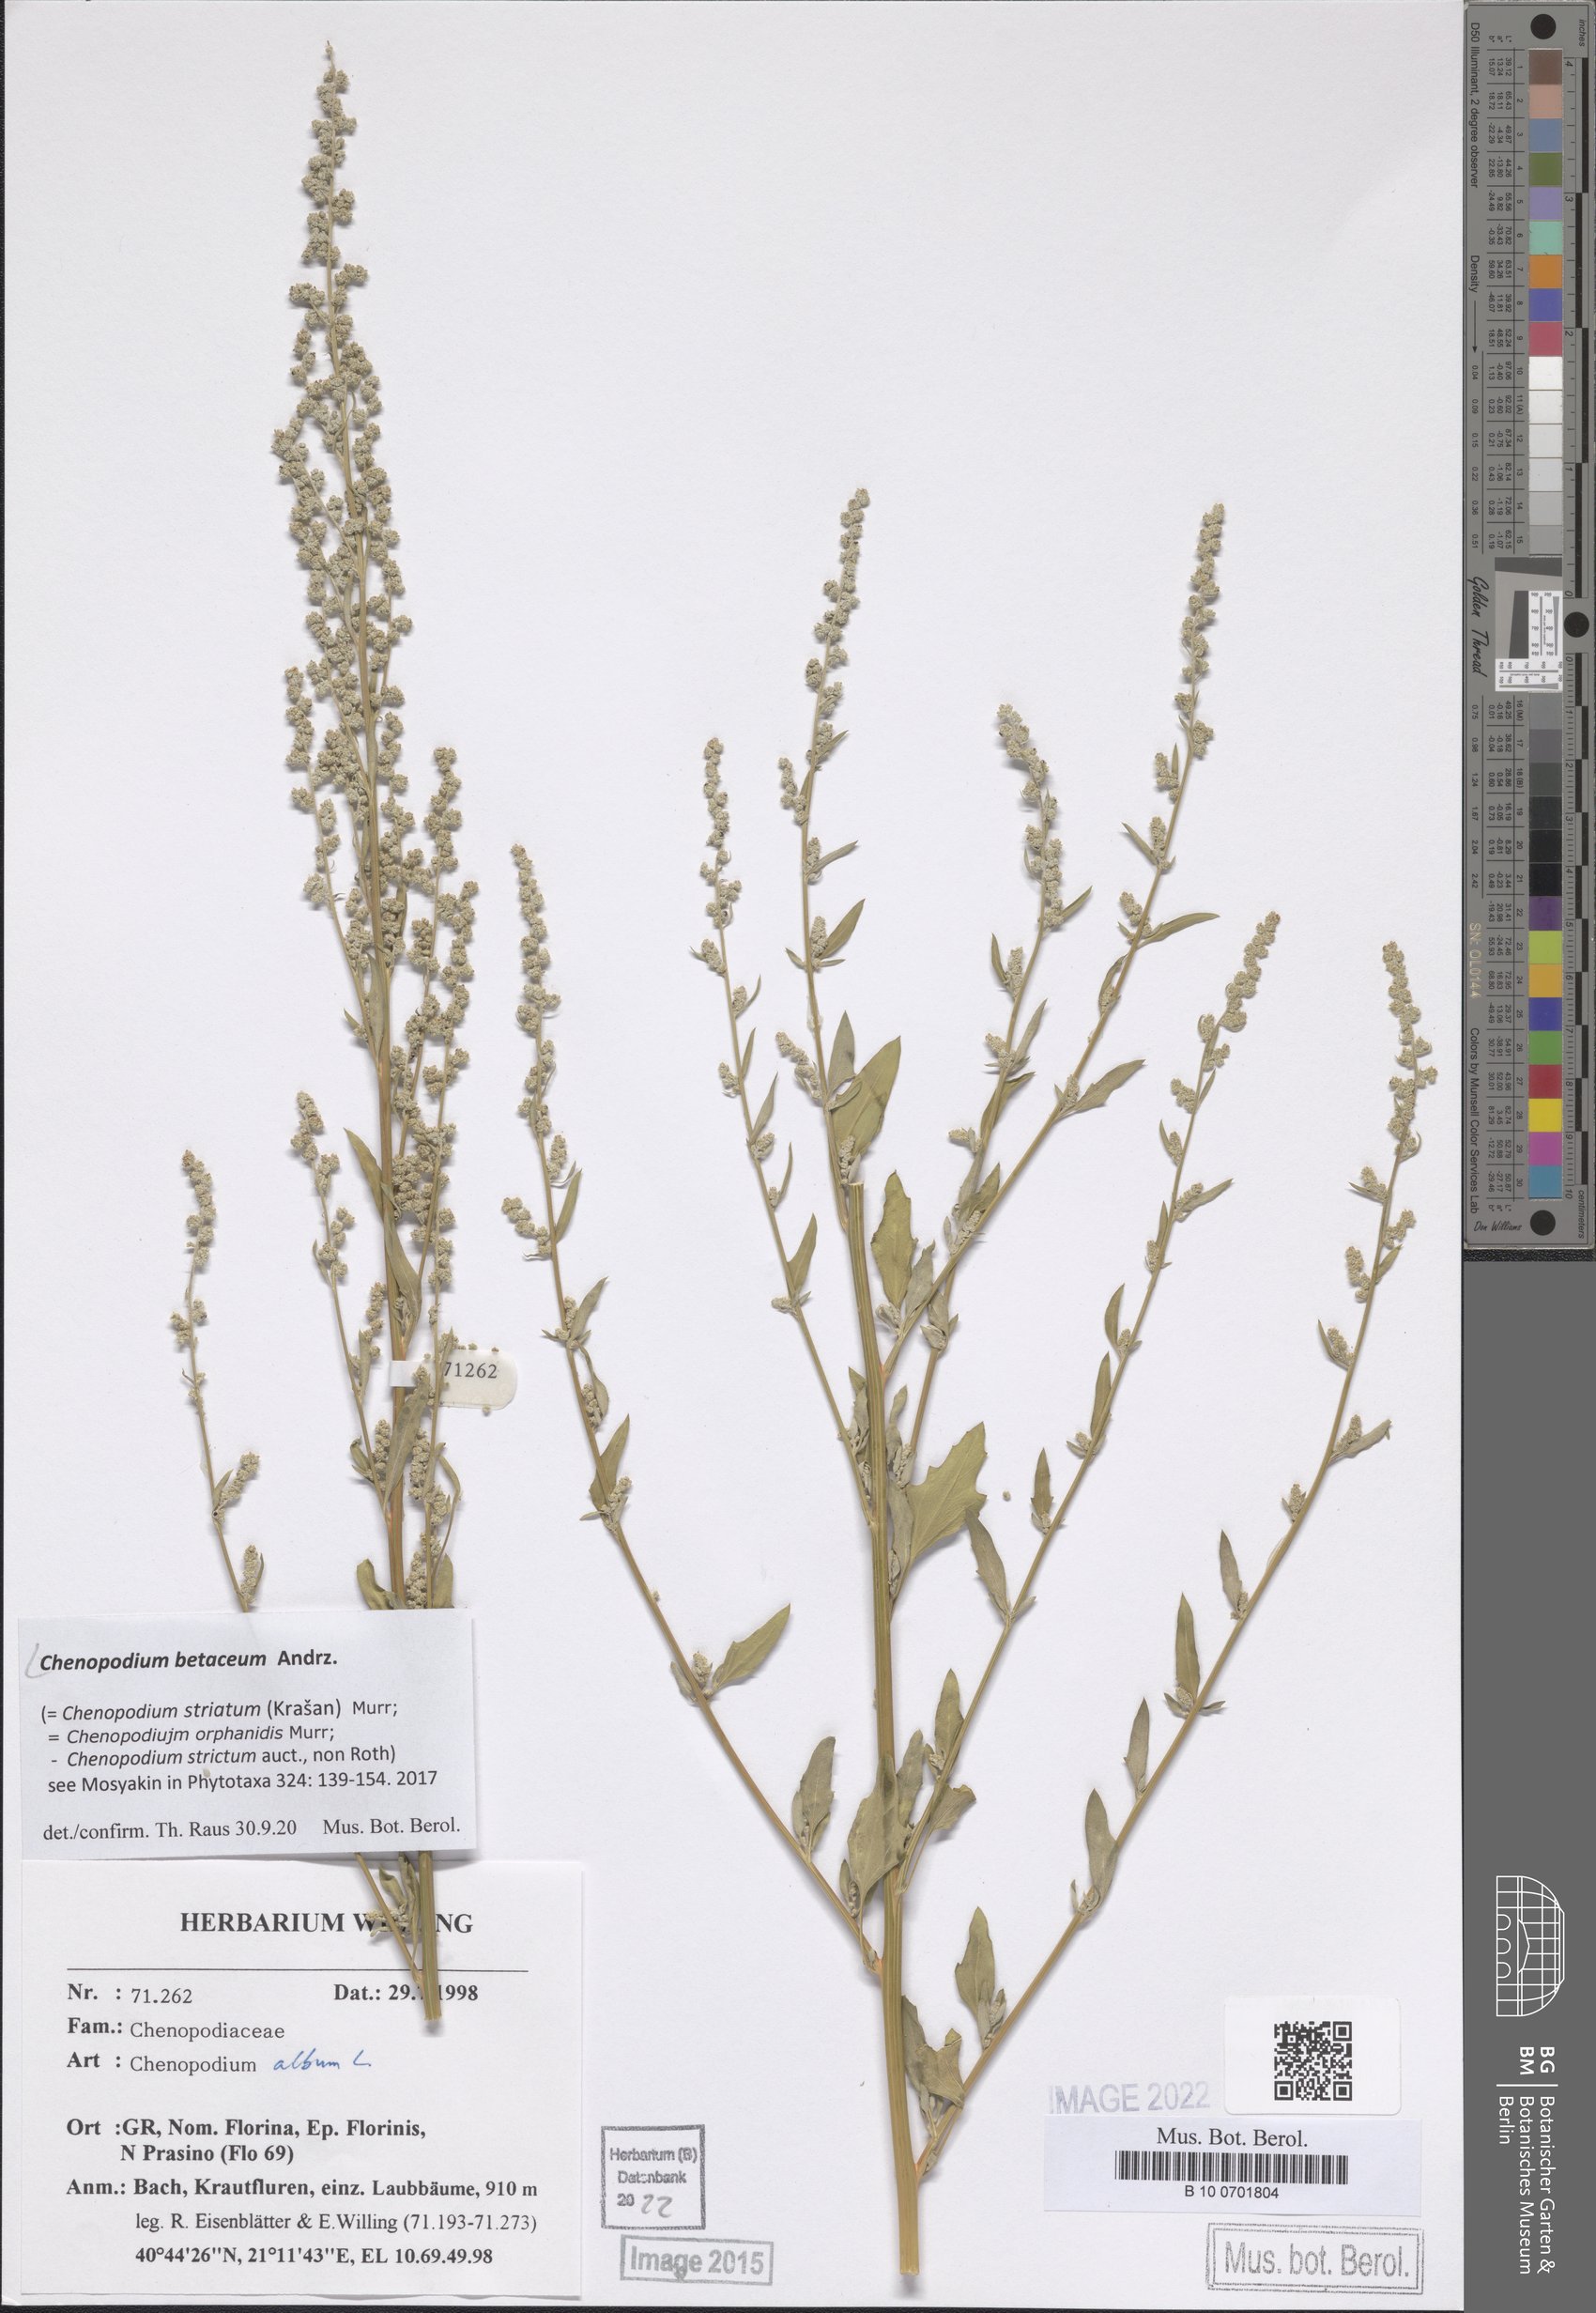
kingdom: Plantae
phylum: Tracheophyta
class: Magnoliopsida
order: Caryophyllales
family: Amaranthaceae
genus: Chenopodium
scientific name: Chenopodium betaceum
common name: Striped goosefoot
